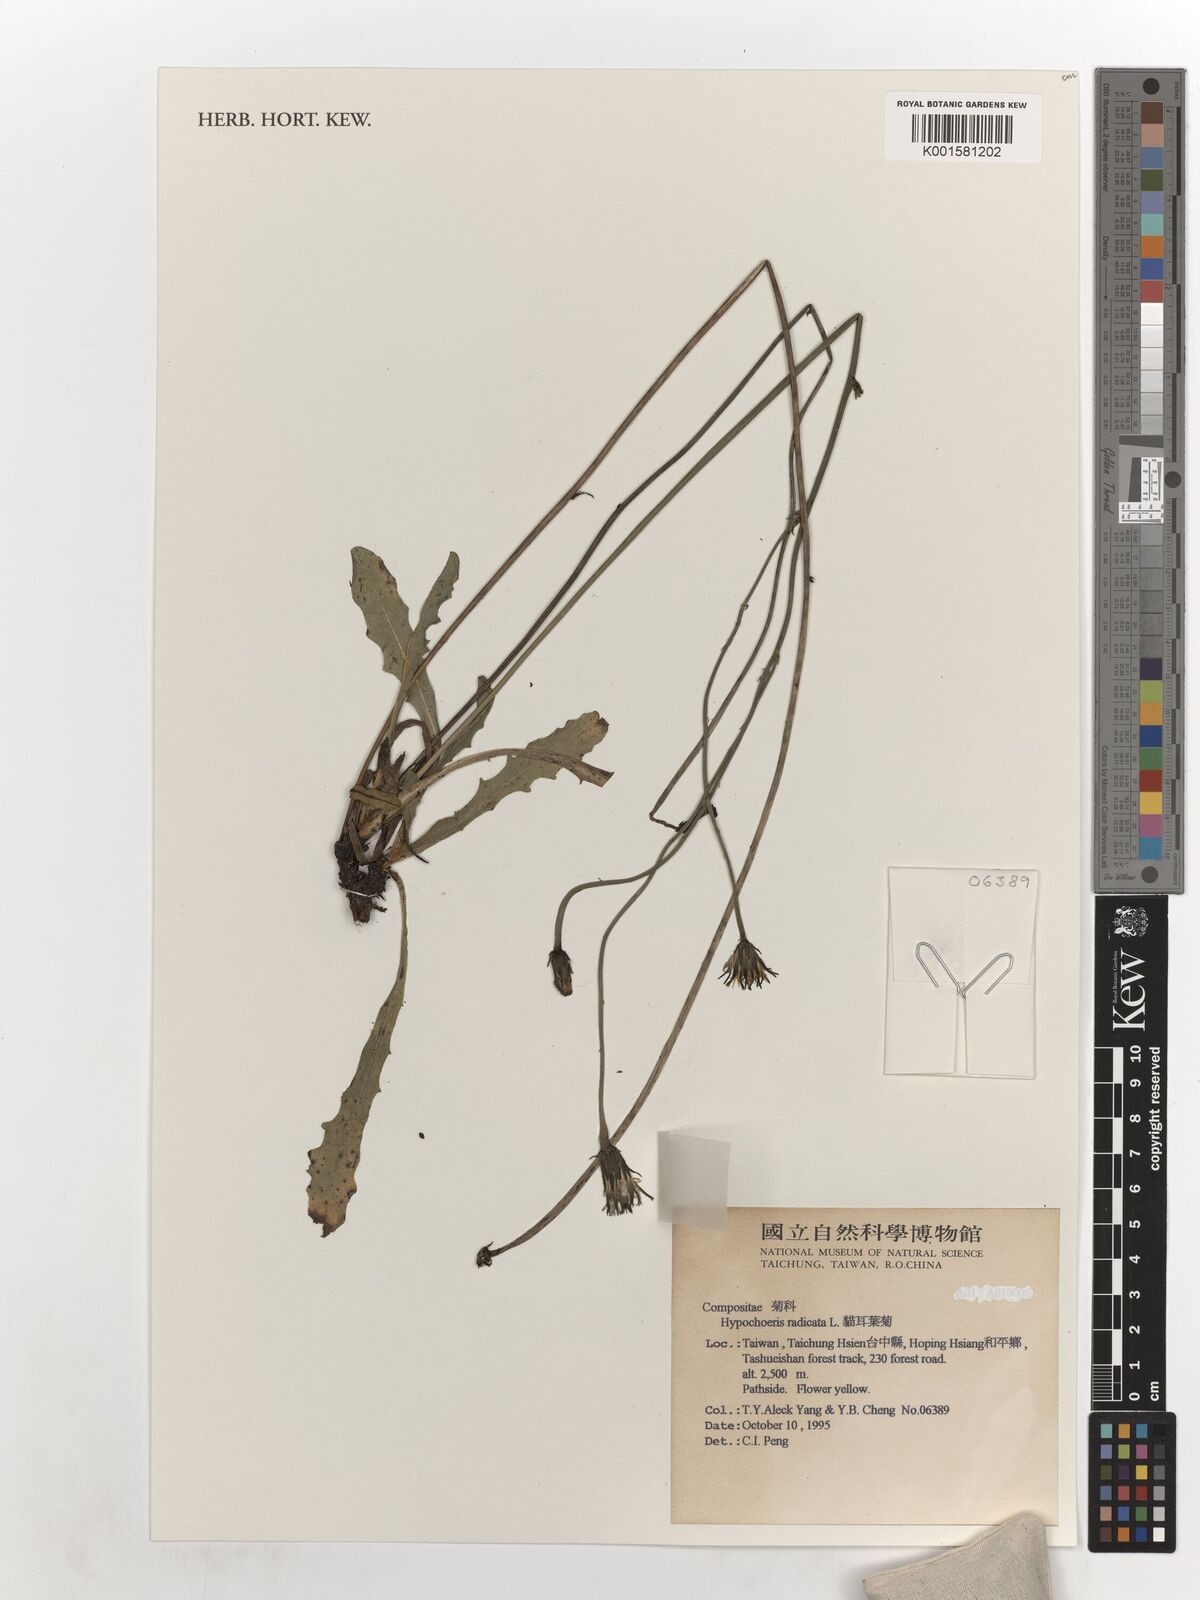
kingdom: Plantae
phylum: Tracheophyta
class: Magnoliopsida
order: Asterales
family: Asteraceae
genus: Hypochaeris
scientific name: Hypochaeris radicata
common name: Flatweed
